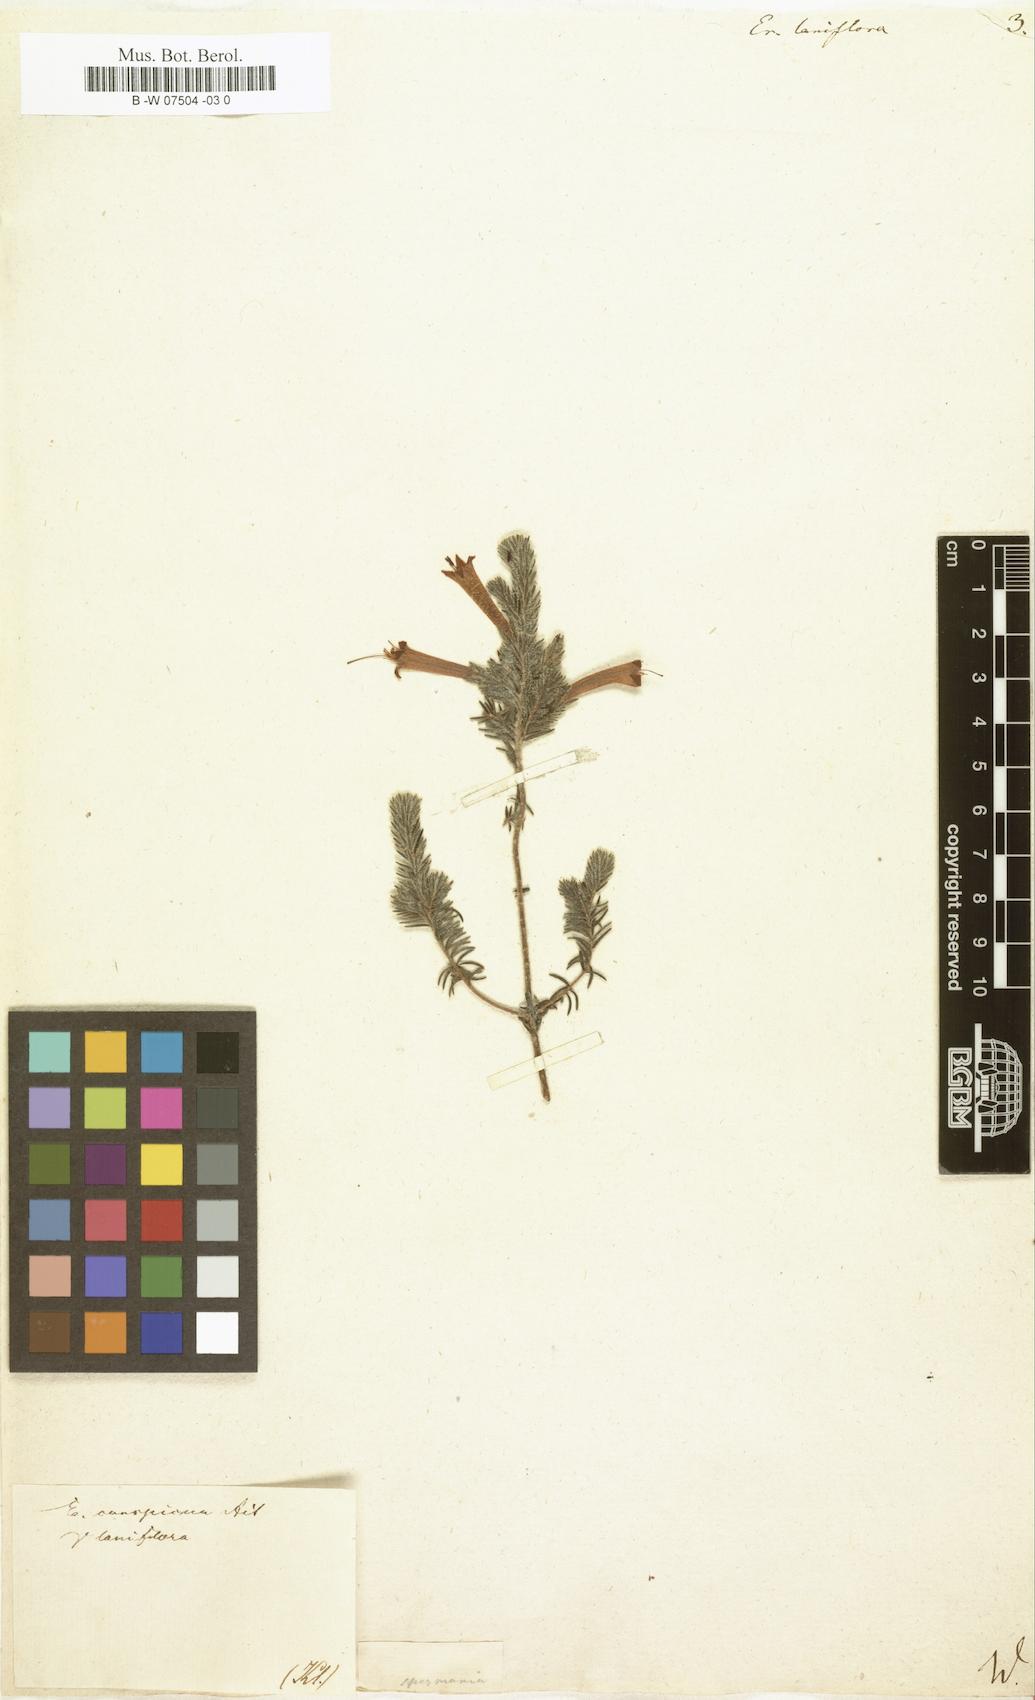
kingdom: Plantae
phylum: Tracheophyta
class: Magnoliopsida
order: Ericales
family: Ericaceae
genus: Erica
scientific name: Erica
